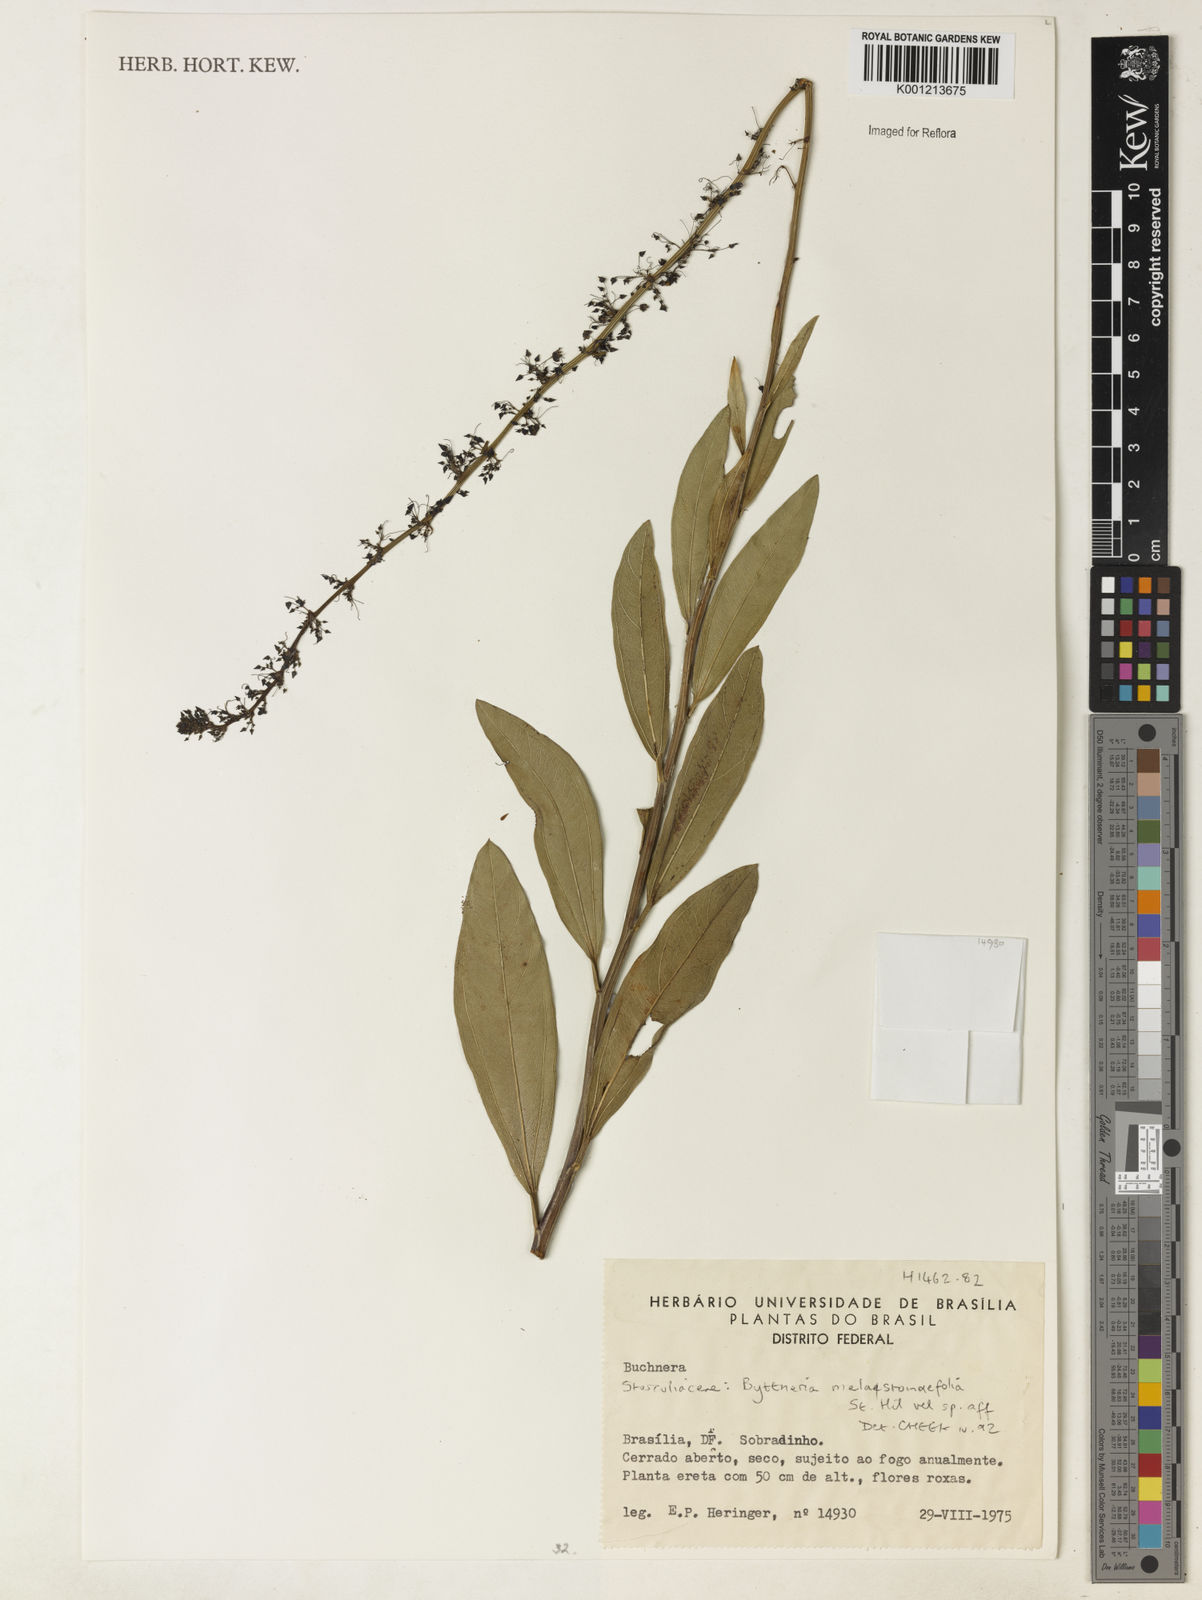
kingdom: Plantae
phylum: Tracheophyta
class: Magnoliopsida
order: Malvales
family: Malvaceae
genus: Byttneria
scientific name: Byttneria melastomifolia
